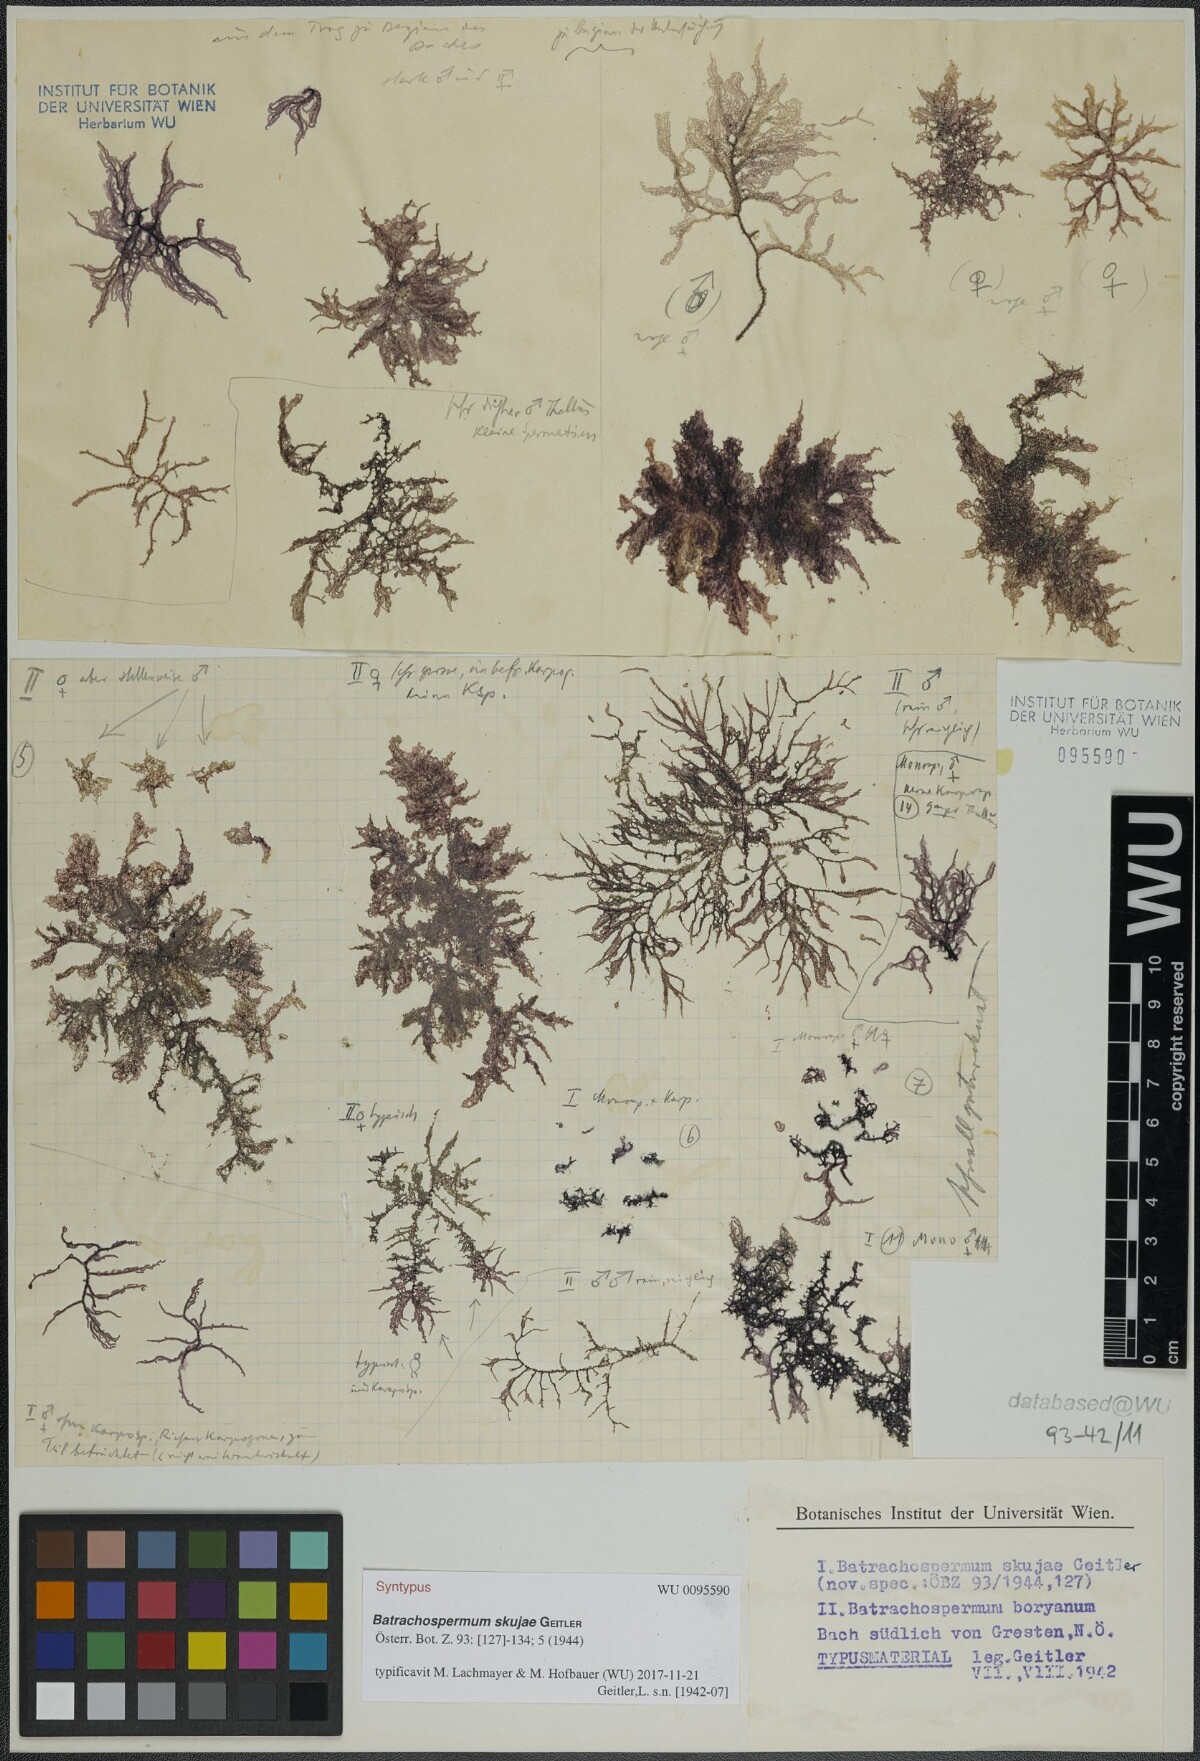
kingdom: Plantae
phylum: Rhodophyta
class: Florideophyceae
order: Batrachospermales
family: Batrachospermaceae
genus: Batrachospermum
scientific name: Batrachospermum gelatinosum
